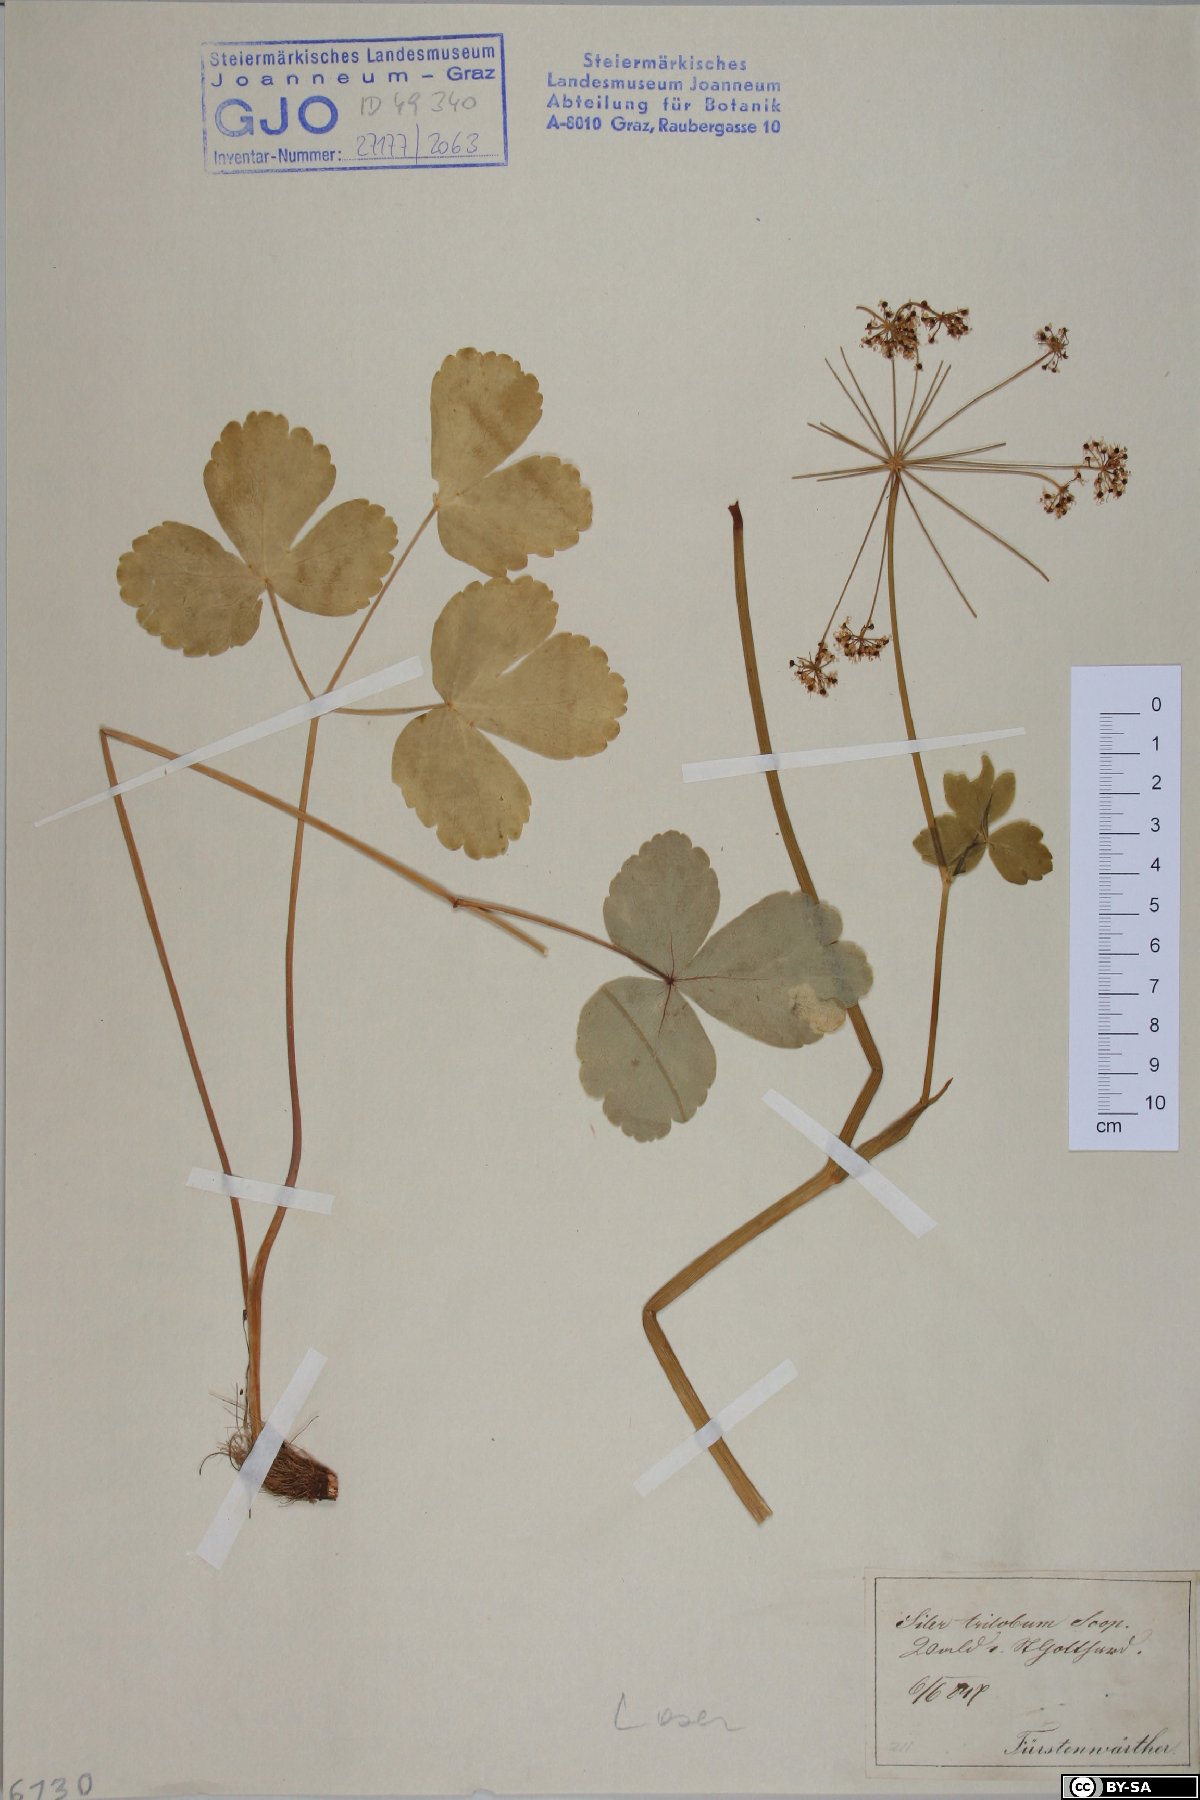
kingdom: Plantae
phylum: Tracheophyta
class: Magnoliopsida
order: Apiales
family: Apiaceae
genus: Laser
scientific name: Laser trilobum
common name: Laser
